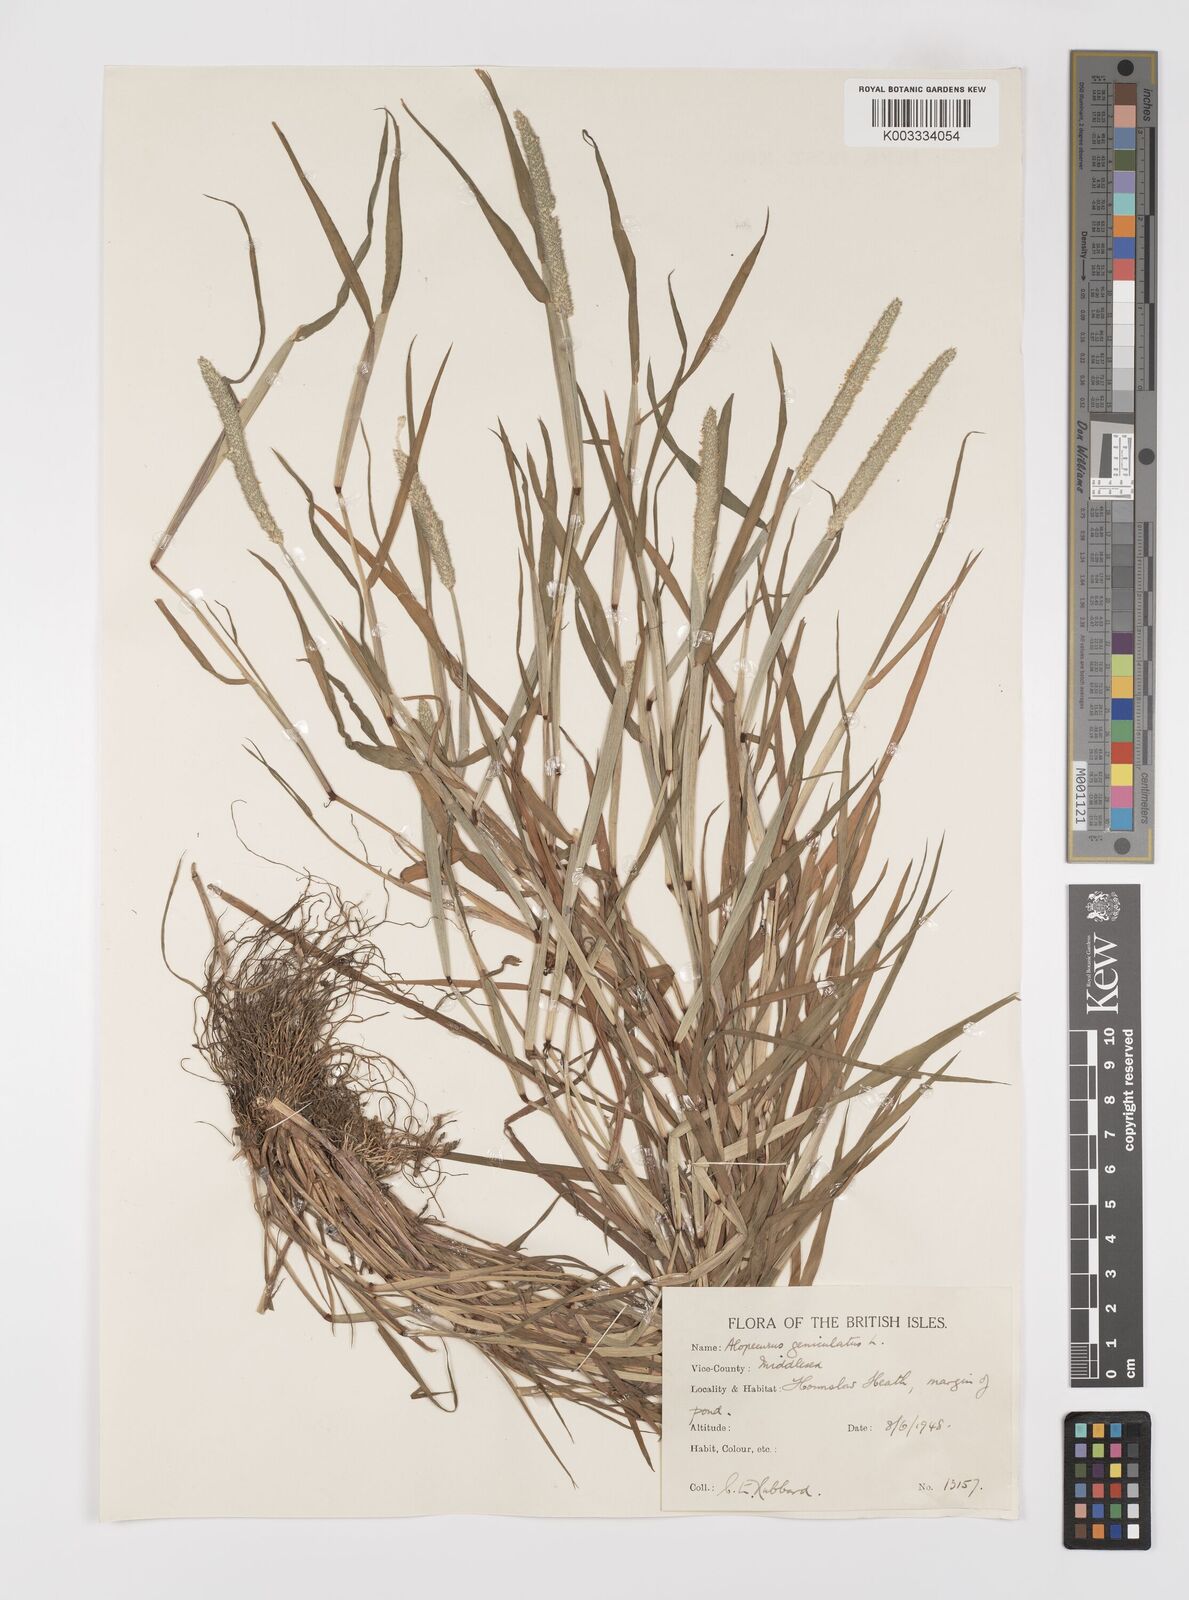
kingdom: Plantae
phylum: Tracheophyta
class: Liliopsida
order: Poales
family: Poaceae
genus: Alopecurus
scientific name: Alopecurus geniculatus
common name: Water foxtail
